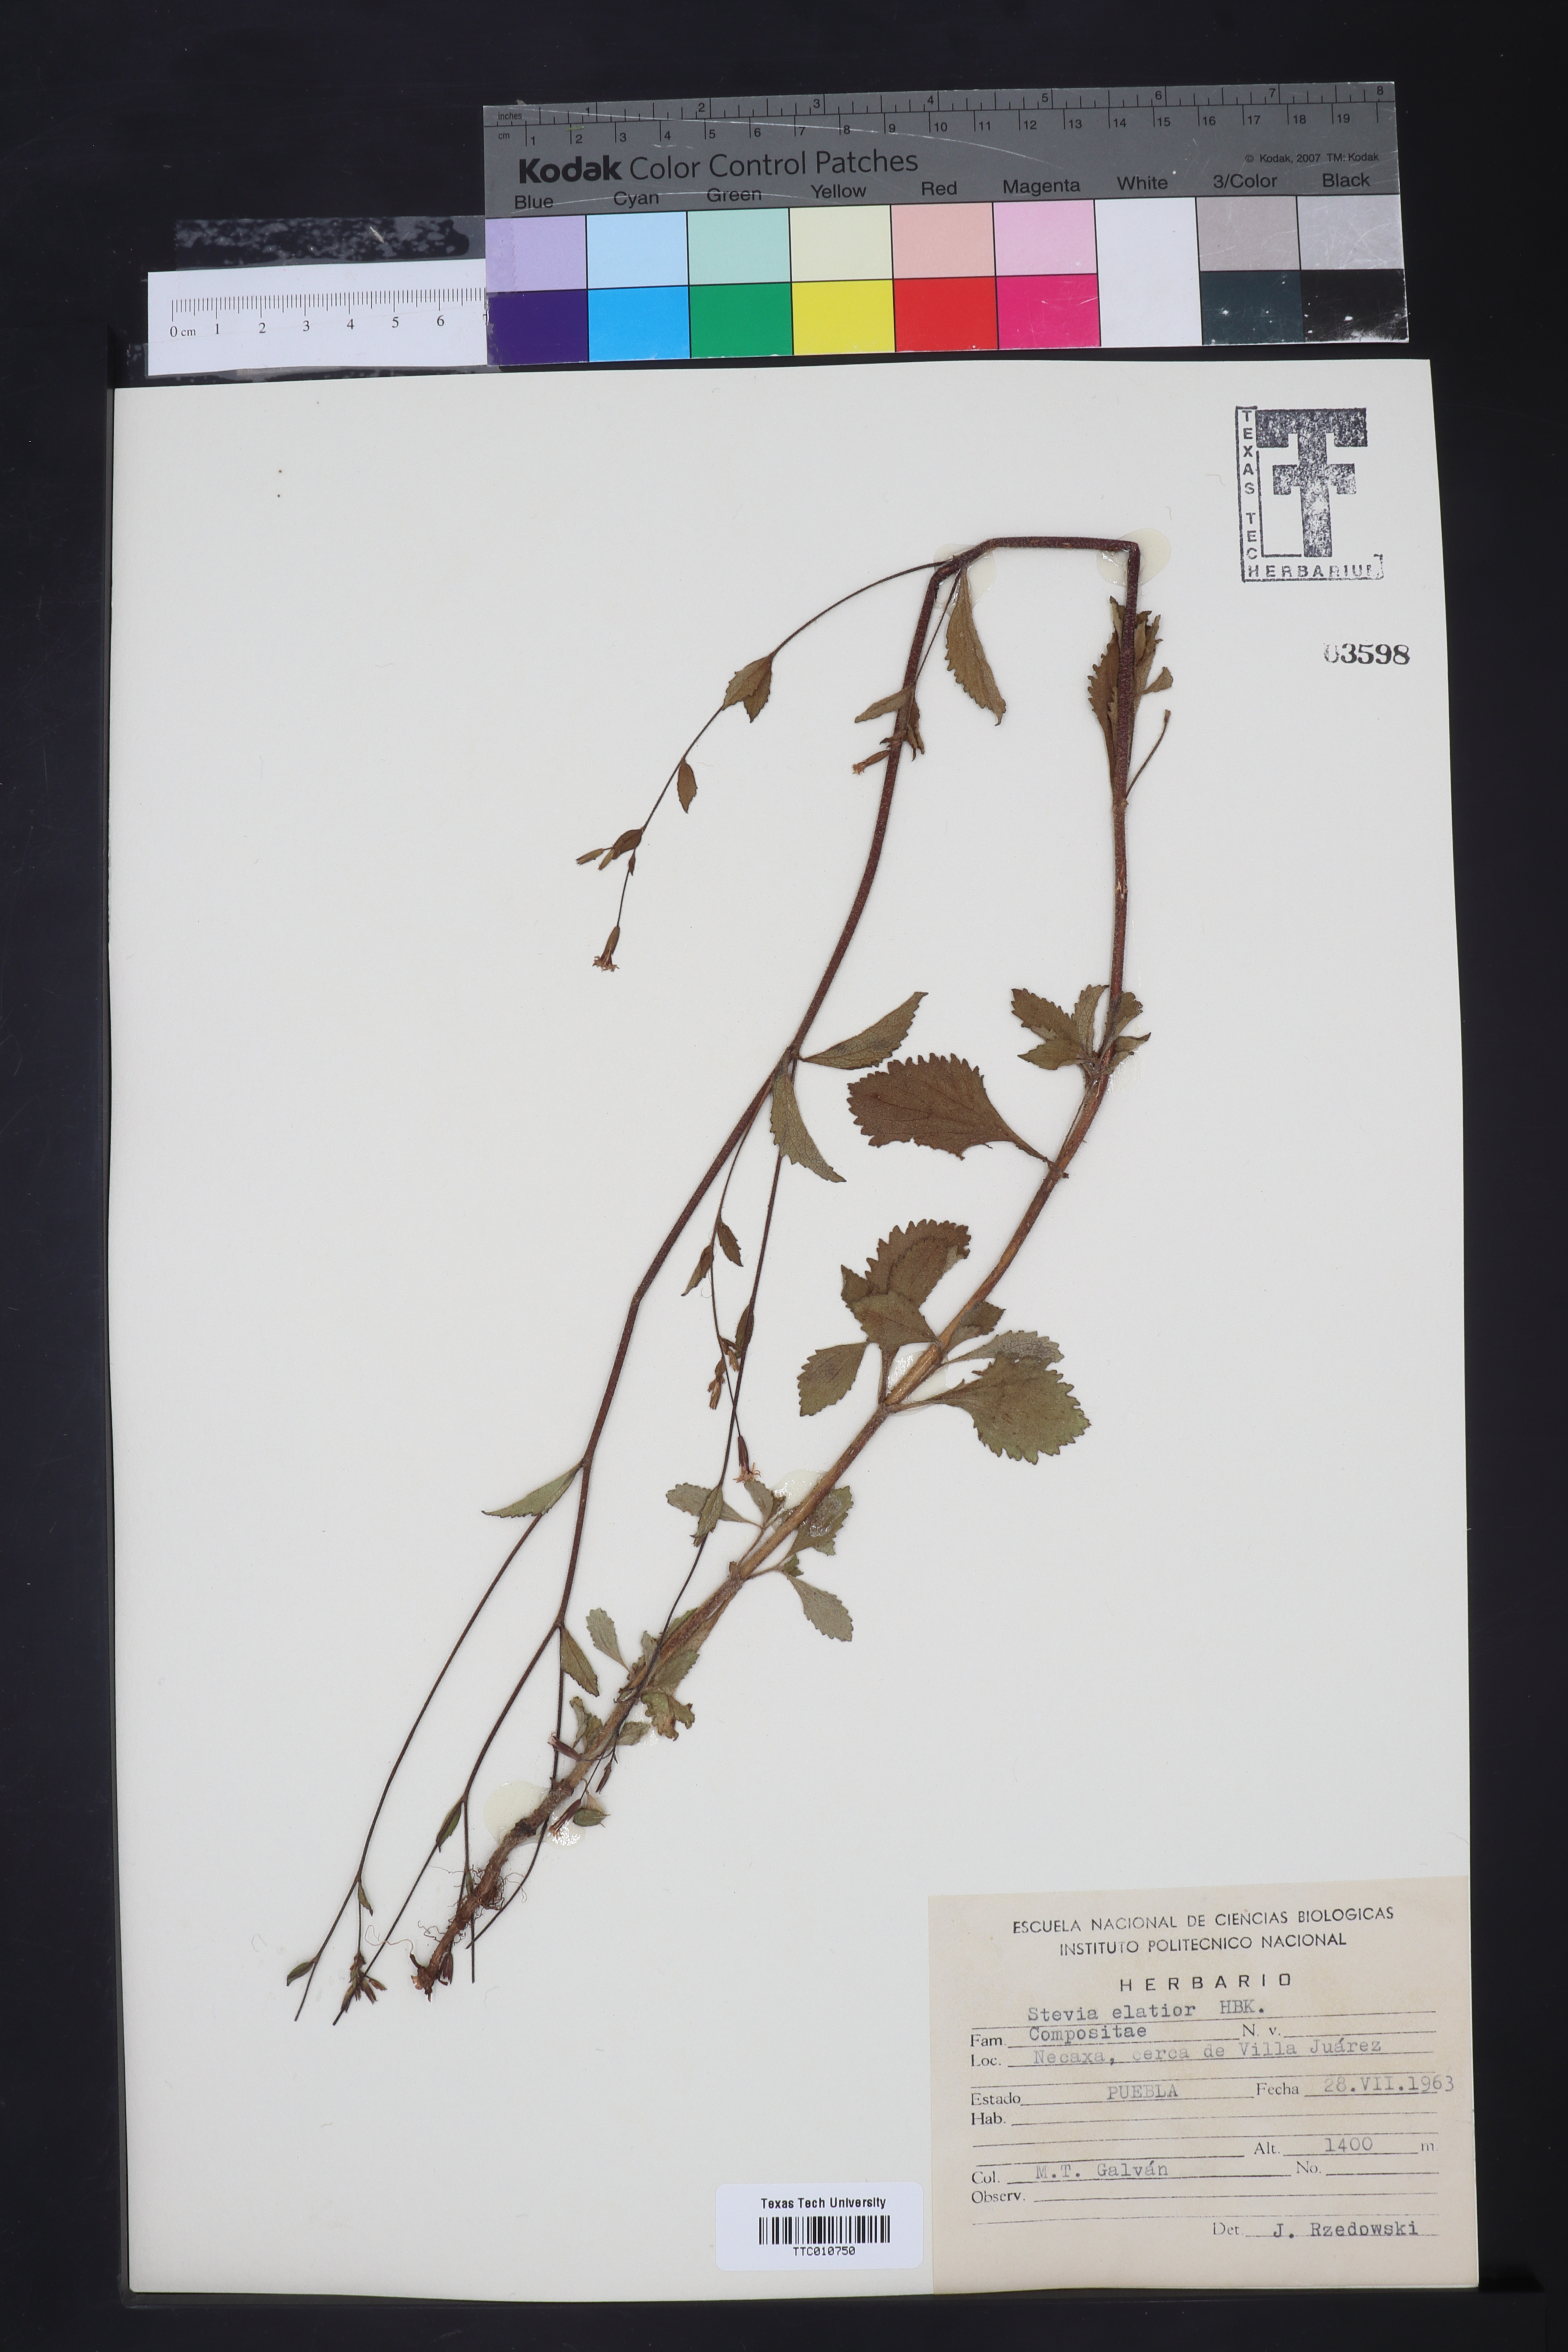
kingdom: Plantae
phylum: Tracheophyta
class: Magnoliopsida
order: Asterales
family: Asteraceae
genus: Stevia
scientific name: Stevia elatior
